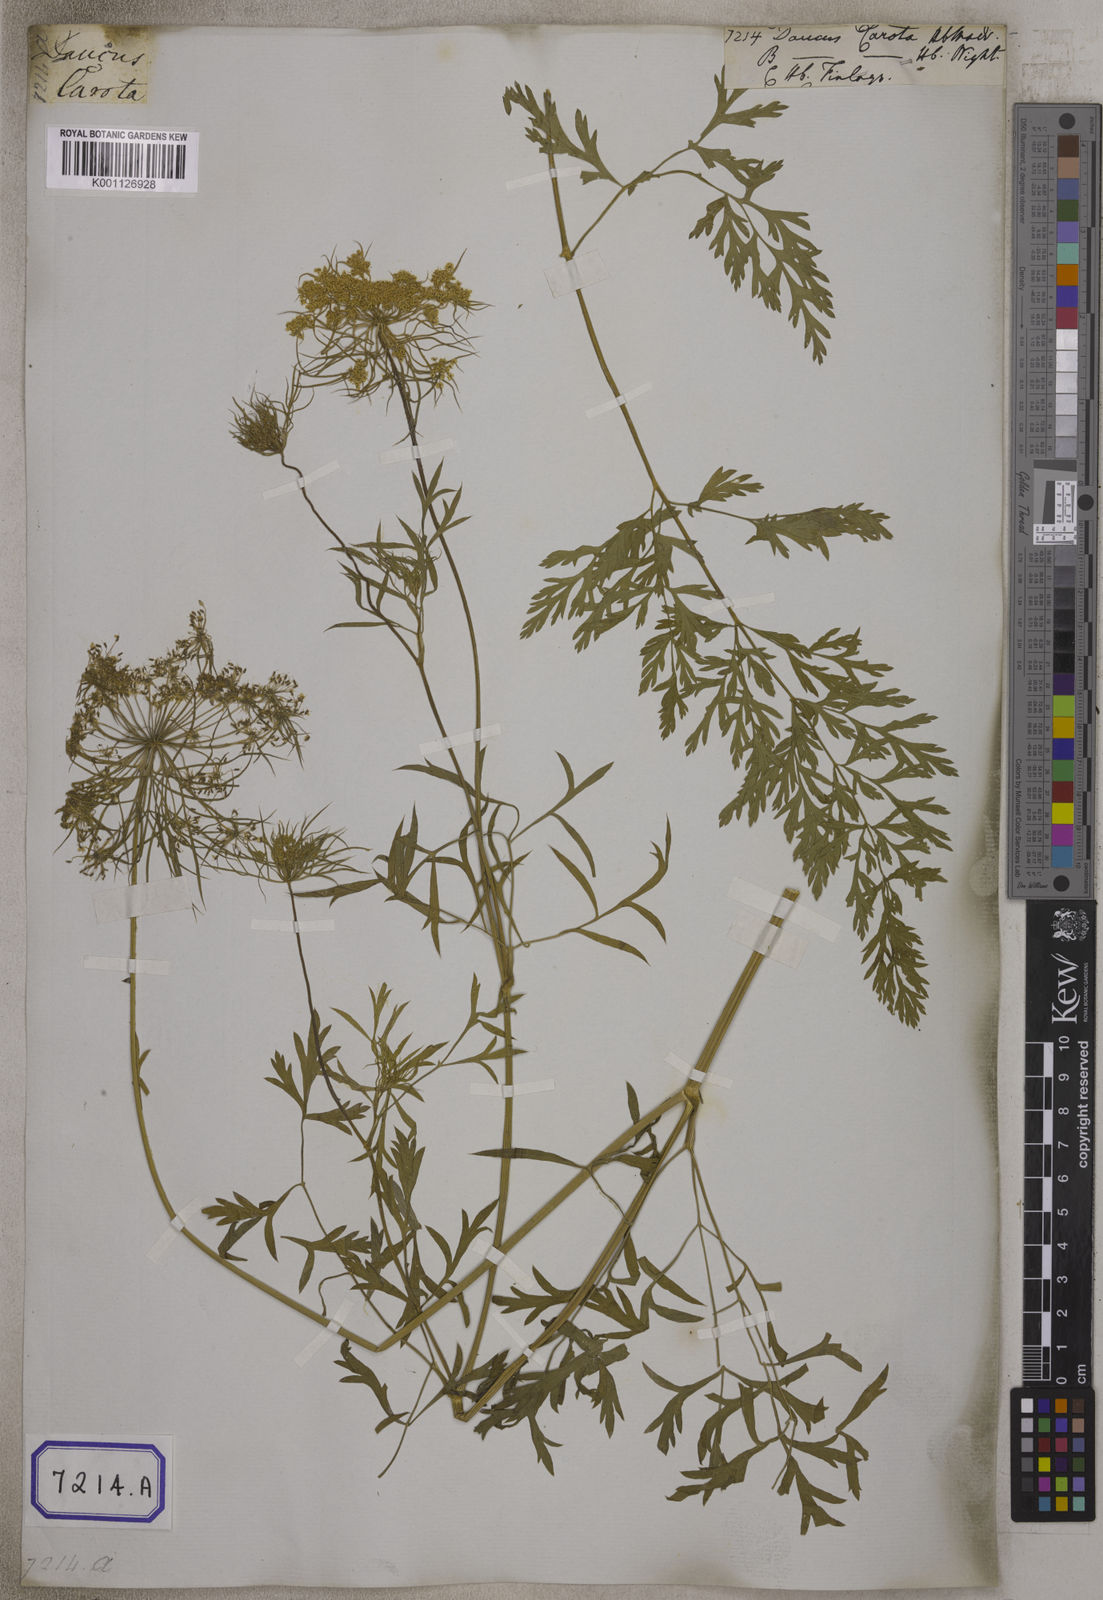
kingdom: Plantae
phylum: Tracheophyta
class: Magnoliopsida
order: Apiales
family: Apiaceae
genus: Daucus
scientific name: Daucus carota
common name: Wild carrot
